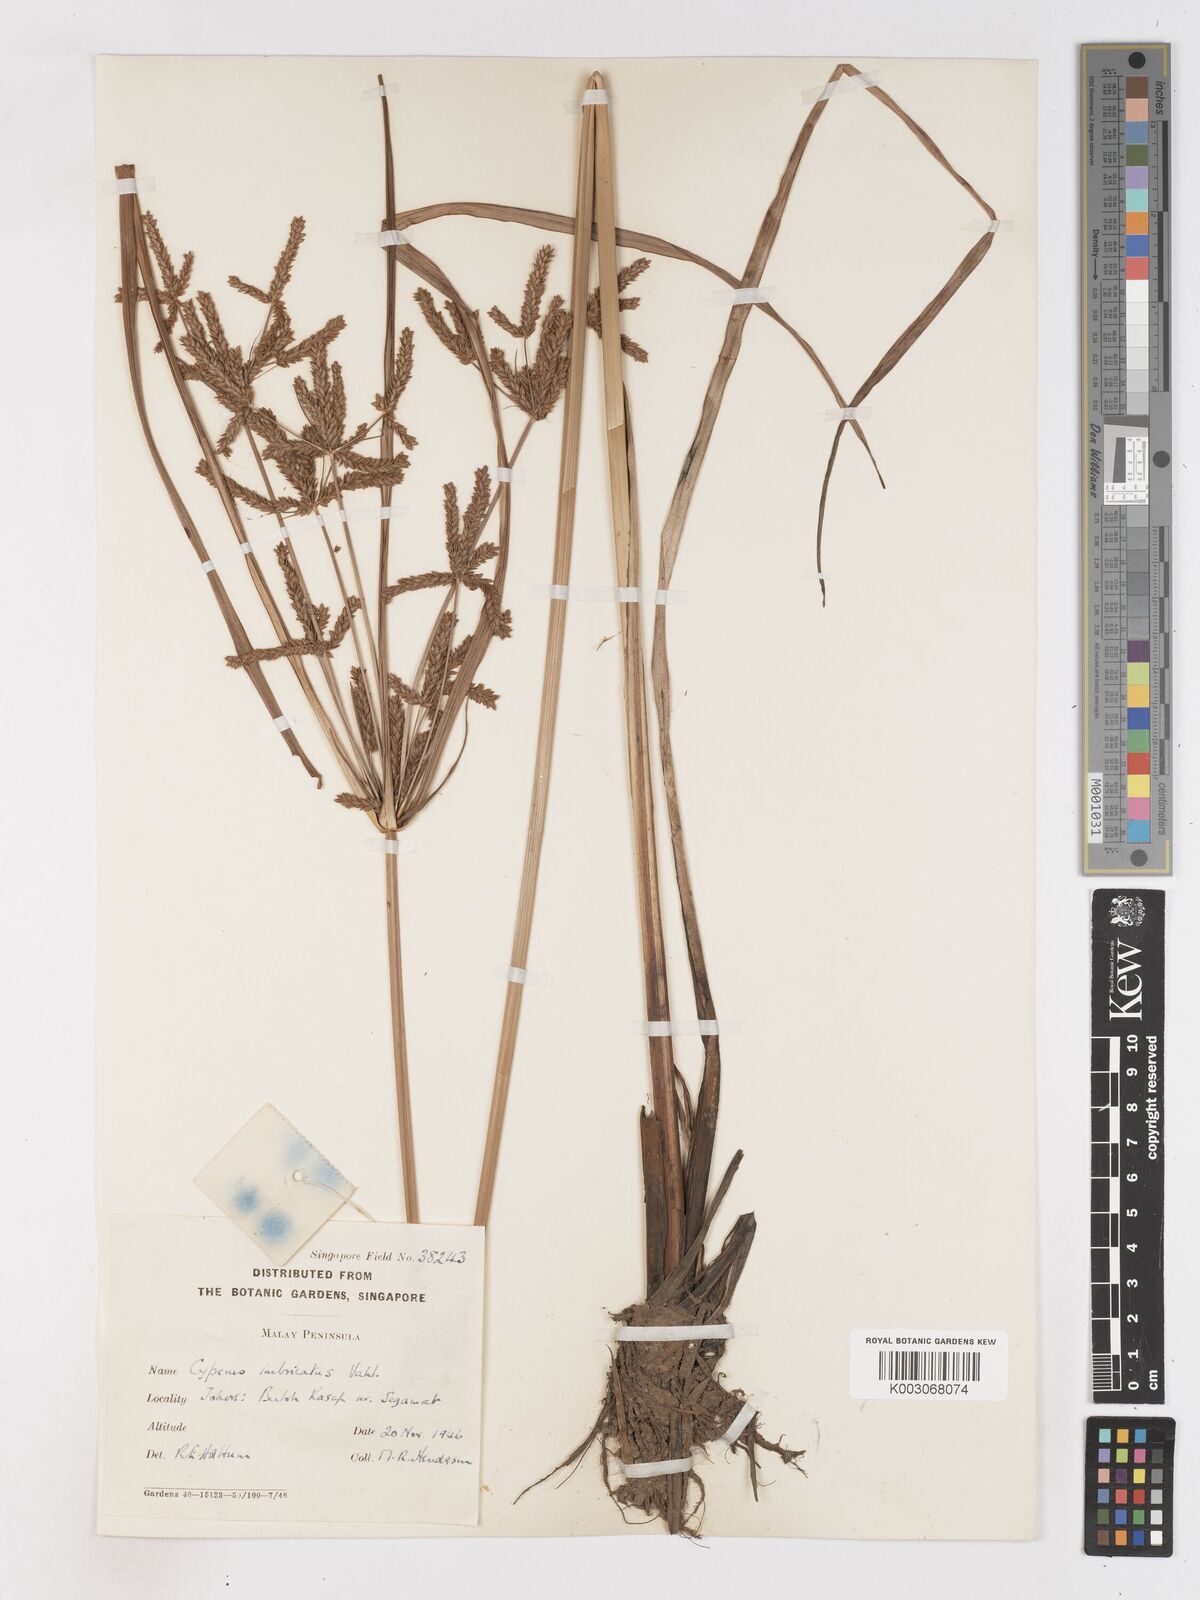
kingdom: Plantae
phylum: Tracheophyta
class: Liliopsida
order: Poales
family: Cyperaceae
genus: Cyperus
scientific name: Cyperus imbricatus
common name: Shingle flatsedge
